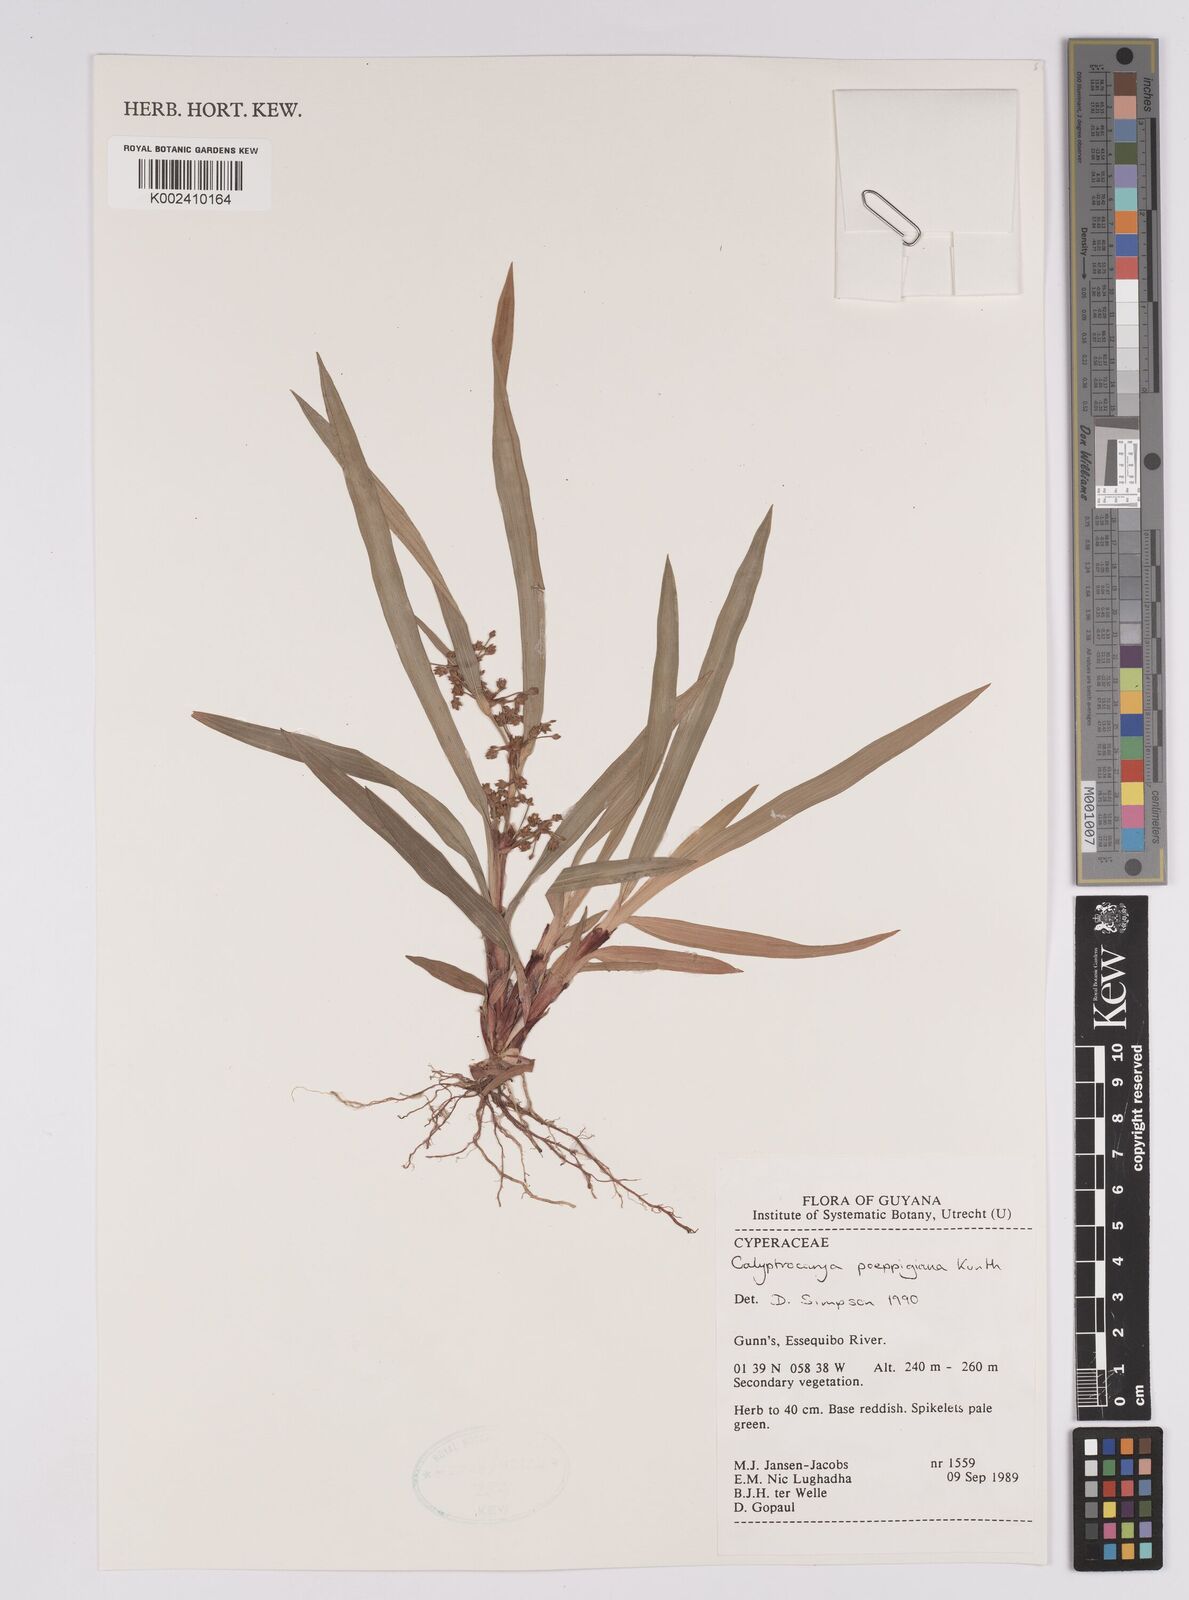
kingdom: Plantae
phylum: Tracheophyta
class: Liliopsida
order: Poales
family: Cyperaceae
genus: Calyptrocarya
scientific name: Calyptrocarya poeppigiana
